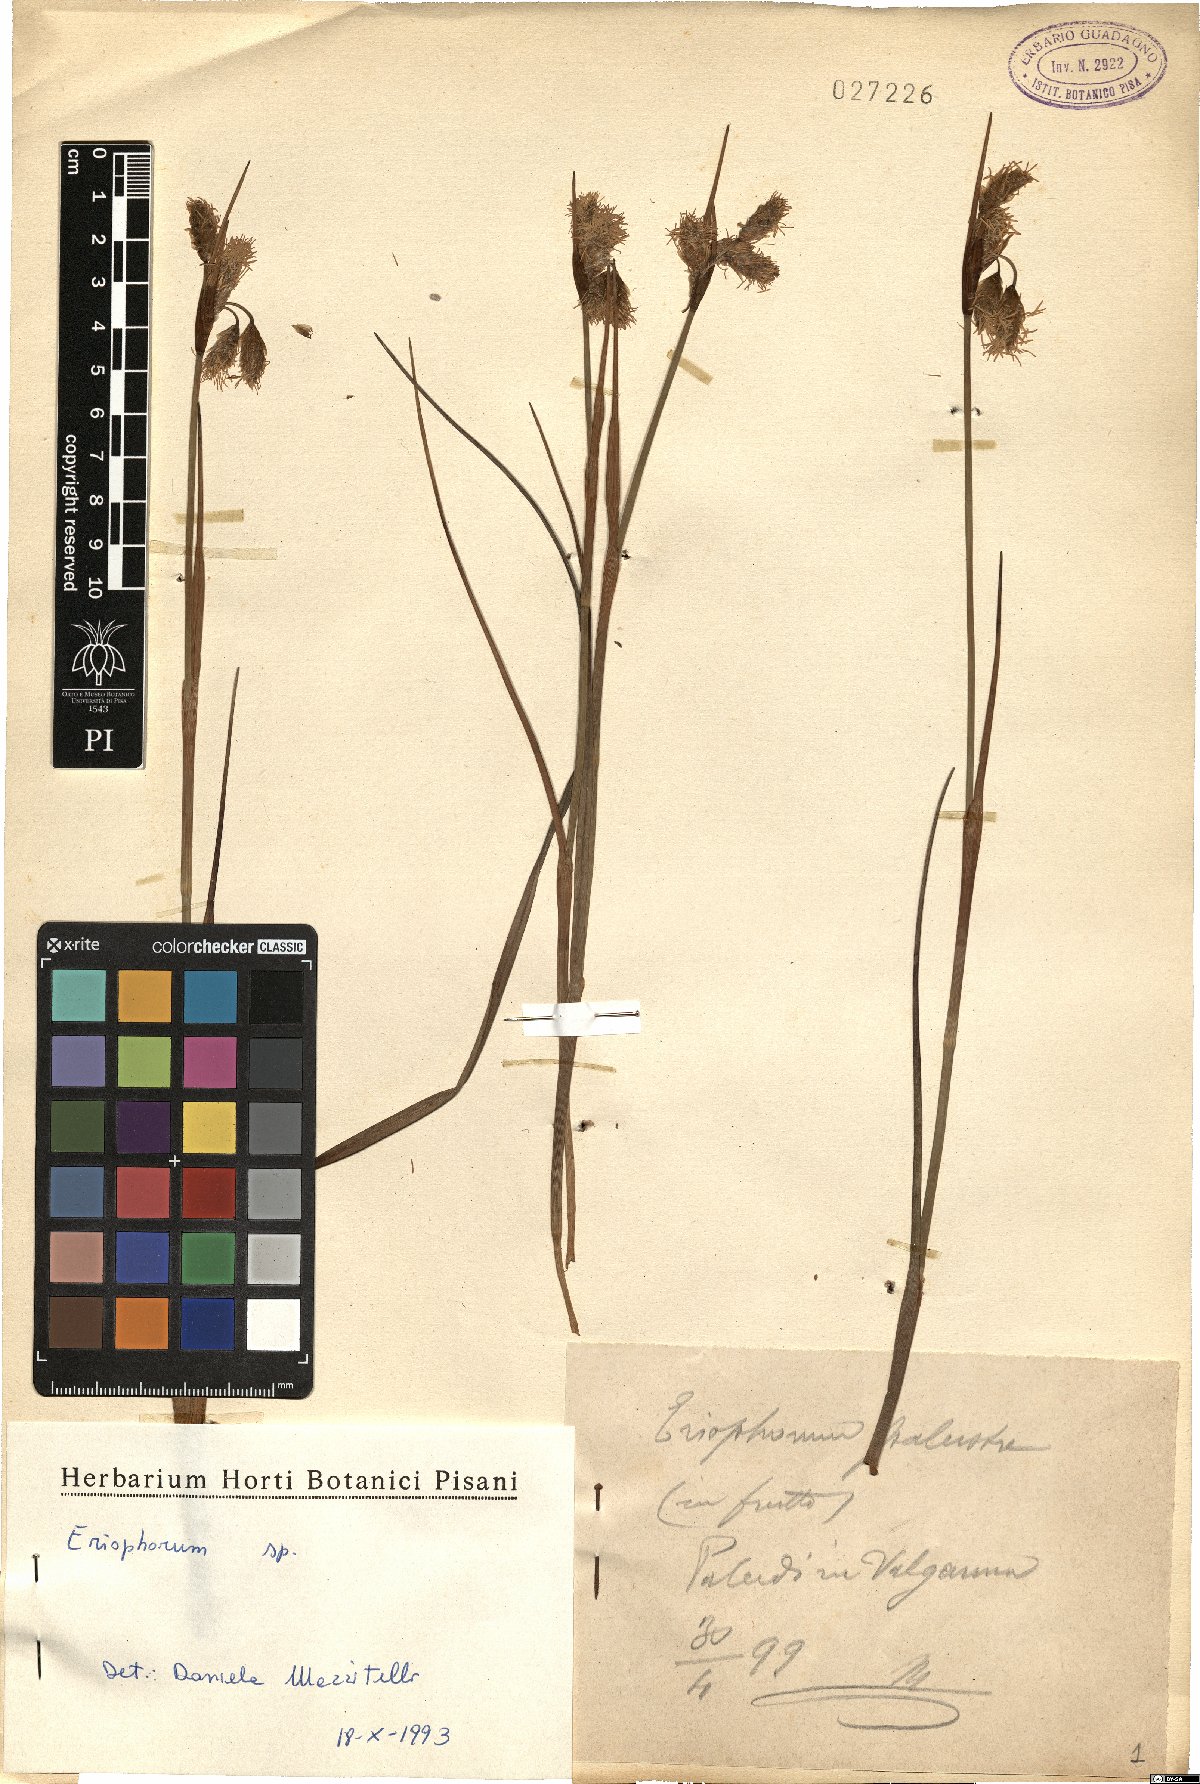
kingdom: Plantae
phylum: Tracheophyta
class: Liliopsida
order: Poales
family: Cyperaceae
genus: Eriophorum
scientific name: Eriophorum
